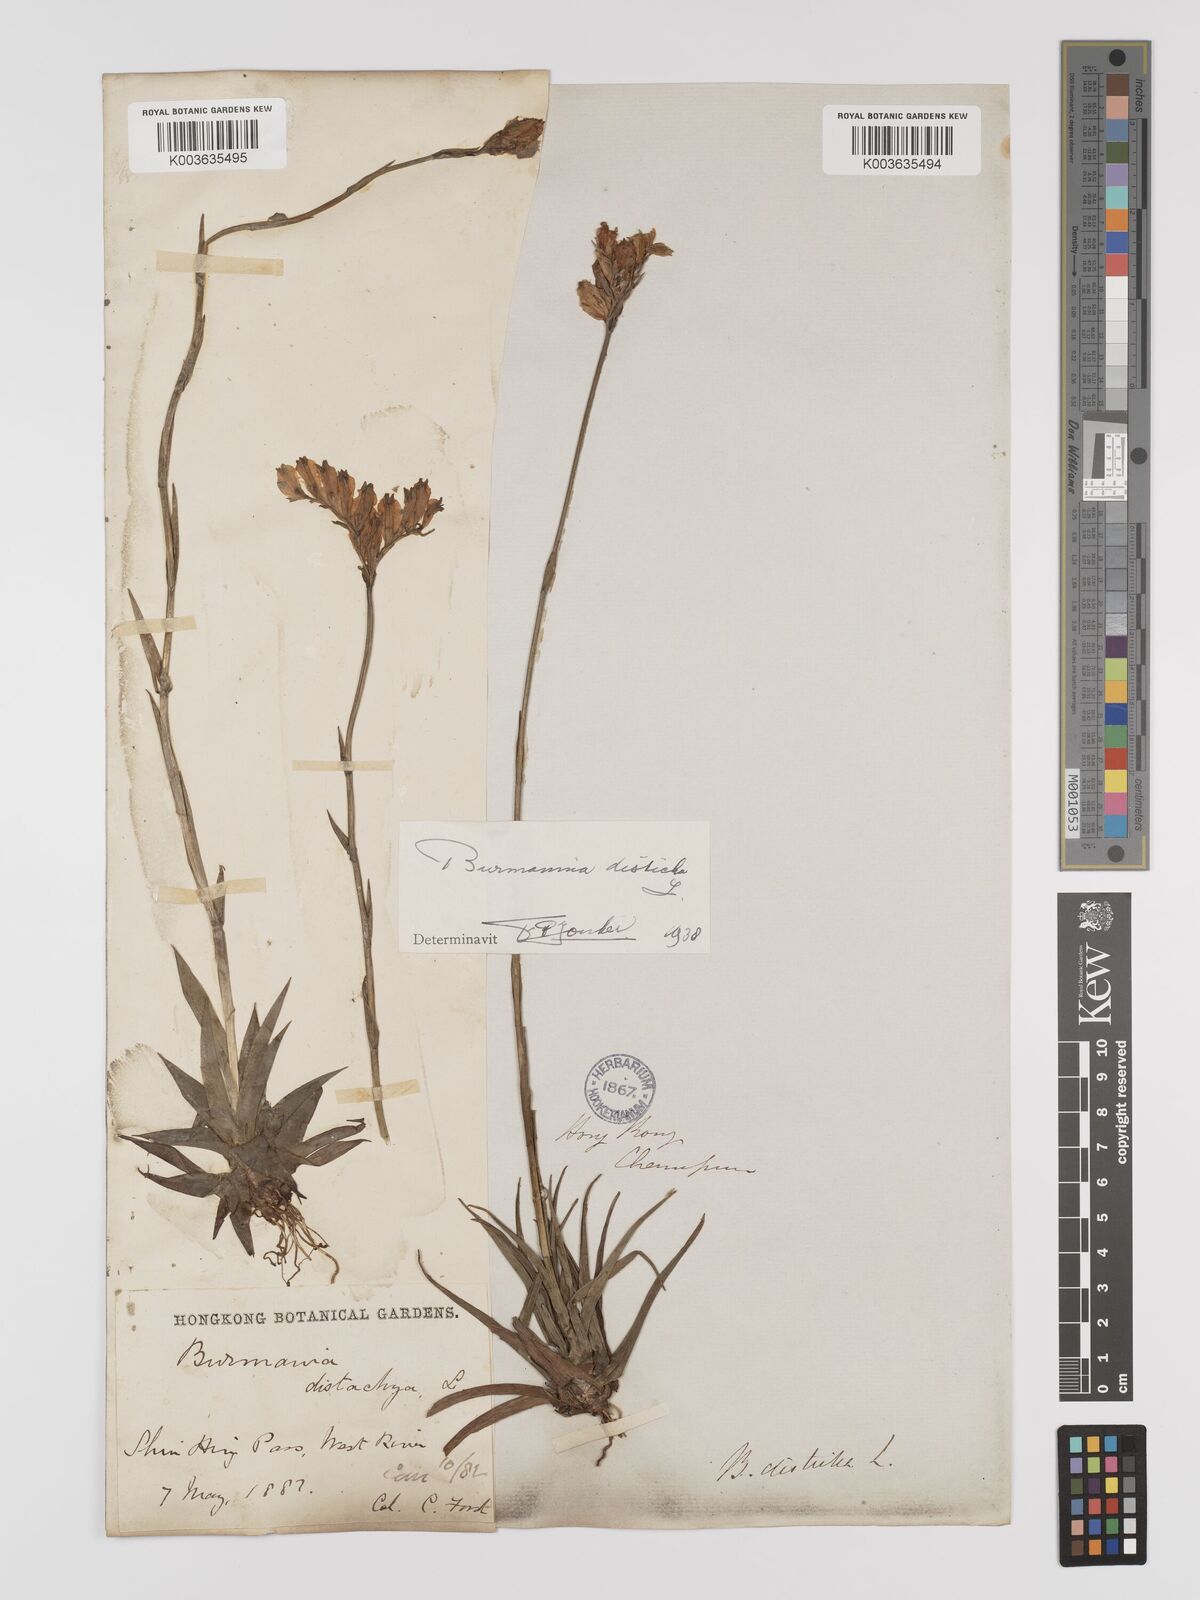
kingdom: Plantae
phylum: Tracheophyta
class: Liliopsida
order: Dioscoreales
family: Burmanniaceae
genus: Burmannia
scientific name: Burmannia disticha
